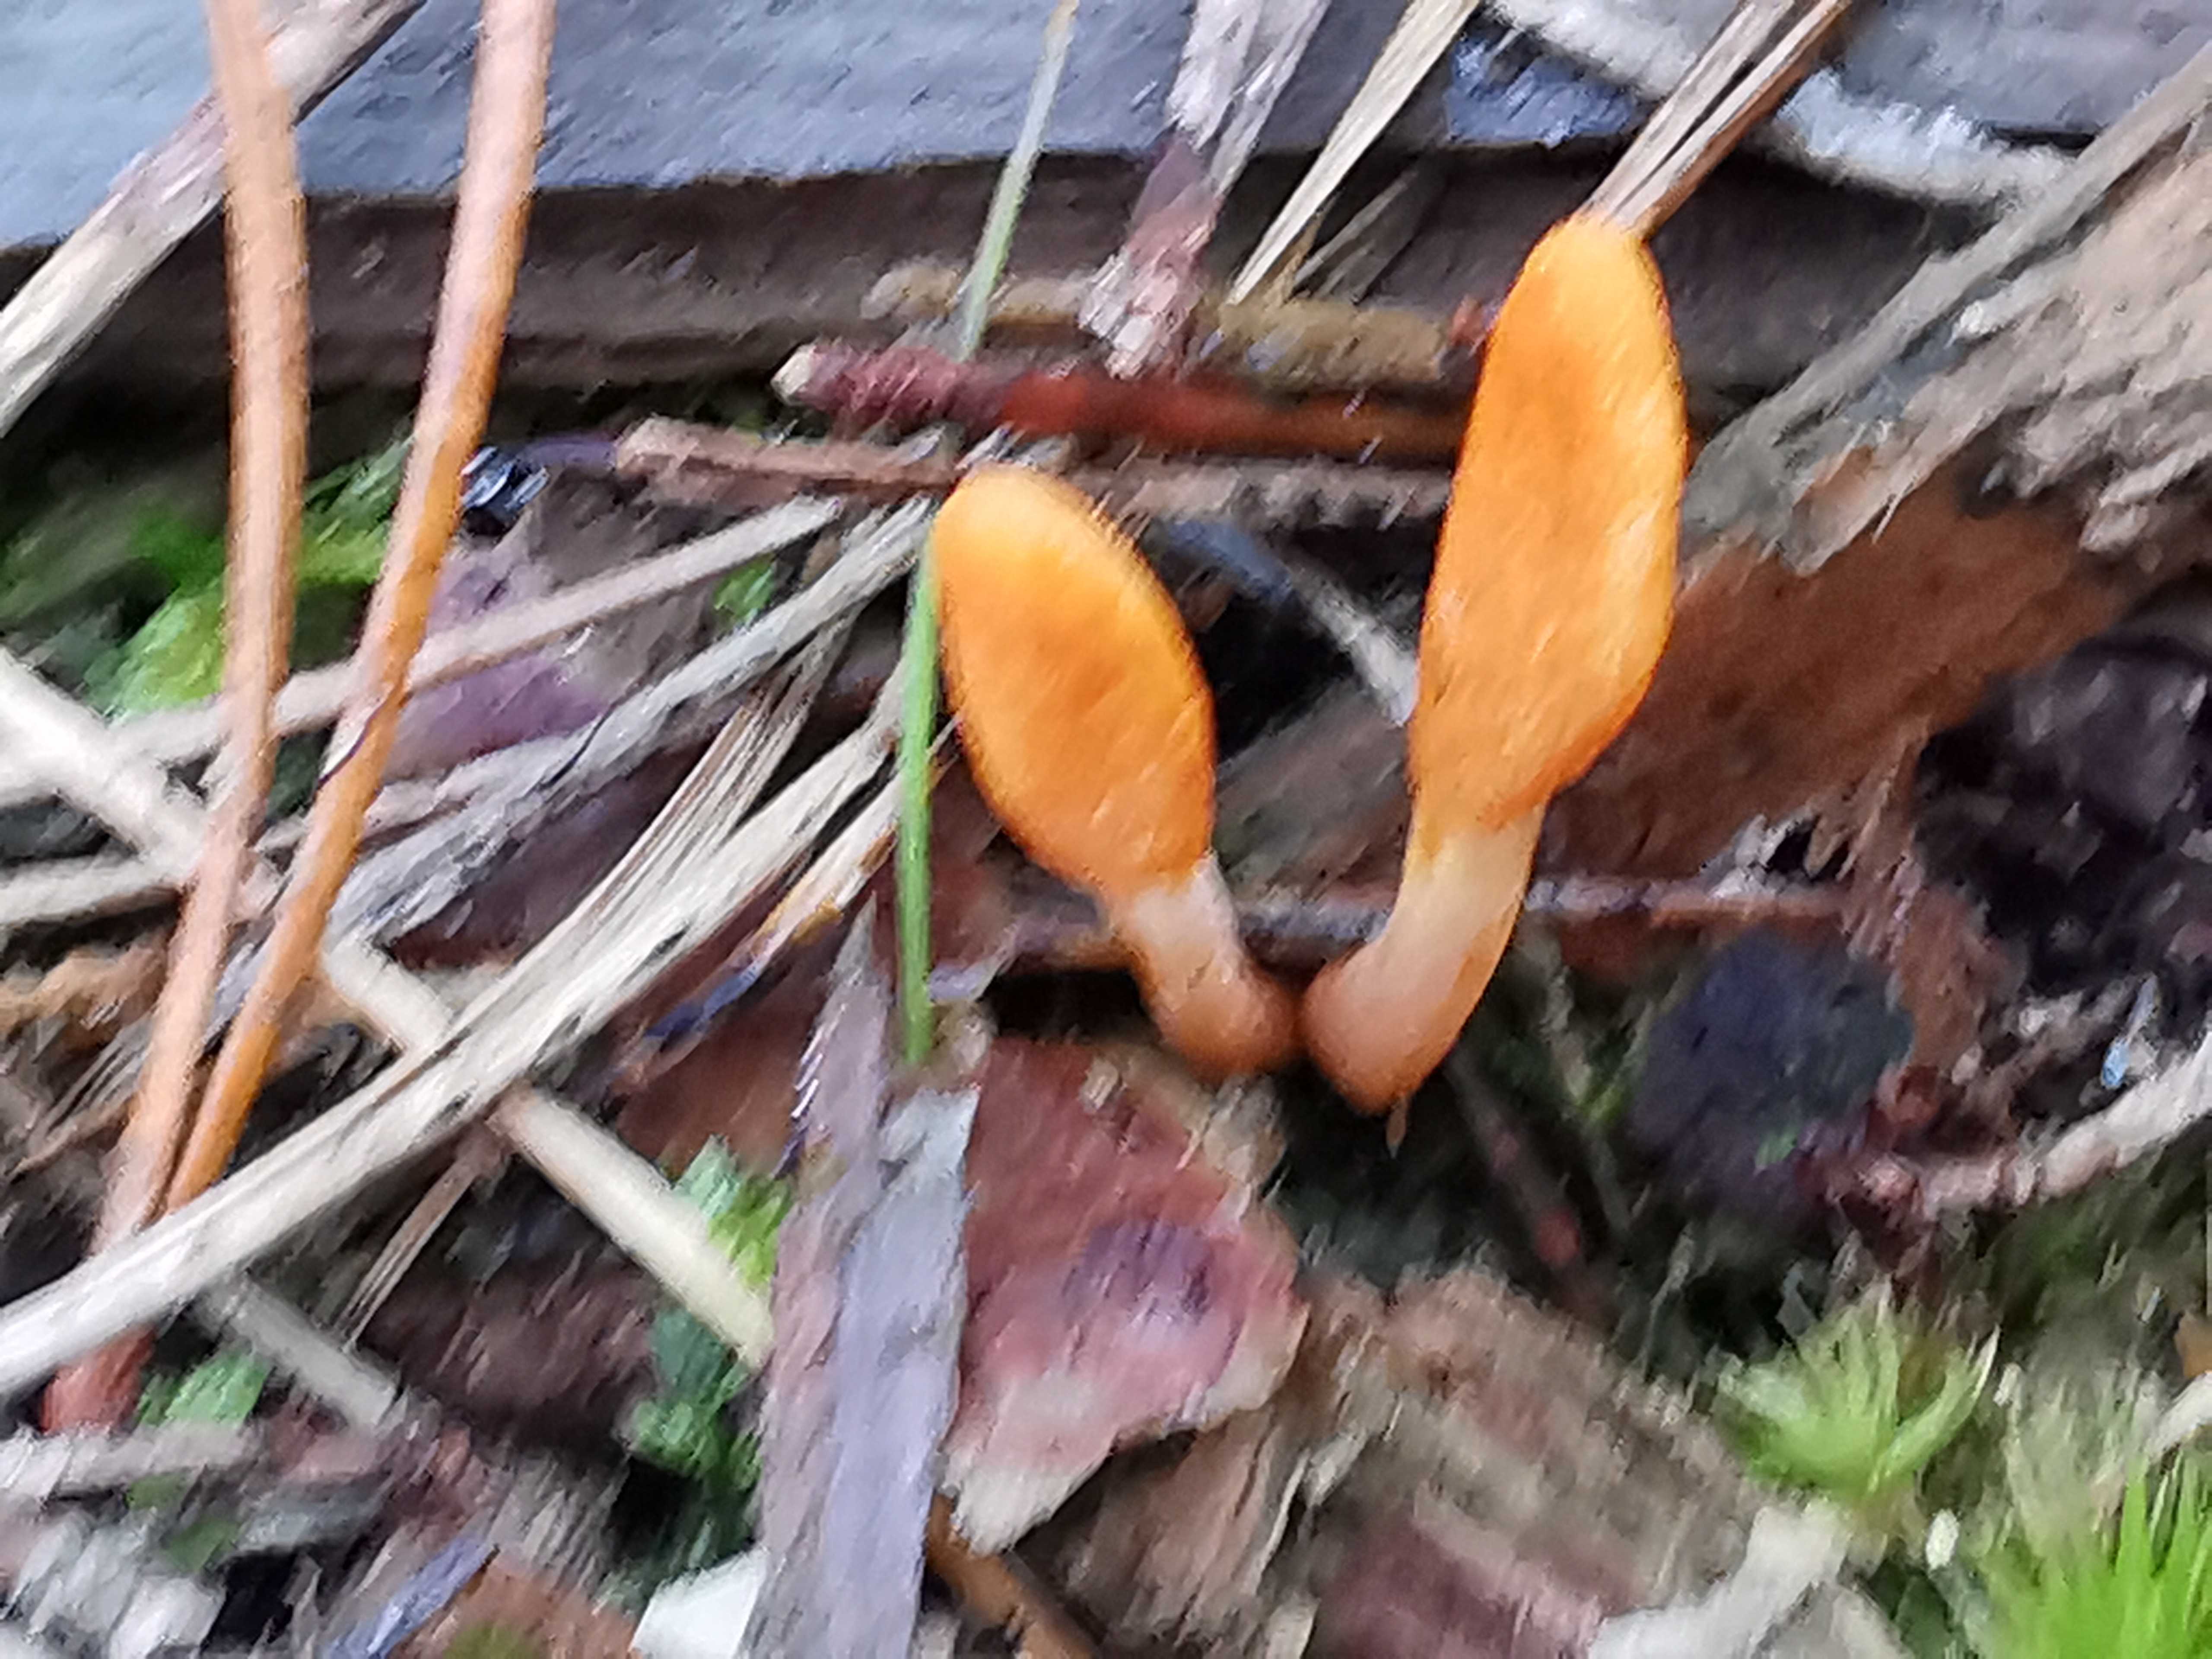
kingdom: Fungi
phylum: Ascomycota
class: Sordariomycetes
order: Hypocreales
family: Cordycipitaceae
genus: Cordyceps
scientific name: Cordyceps militaris
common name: puppe-snyltekølle
